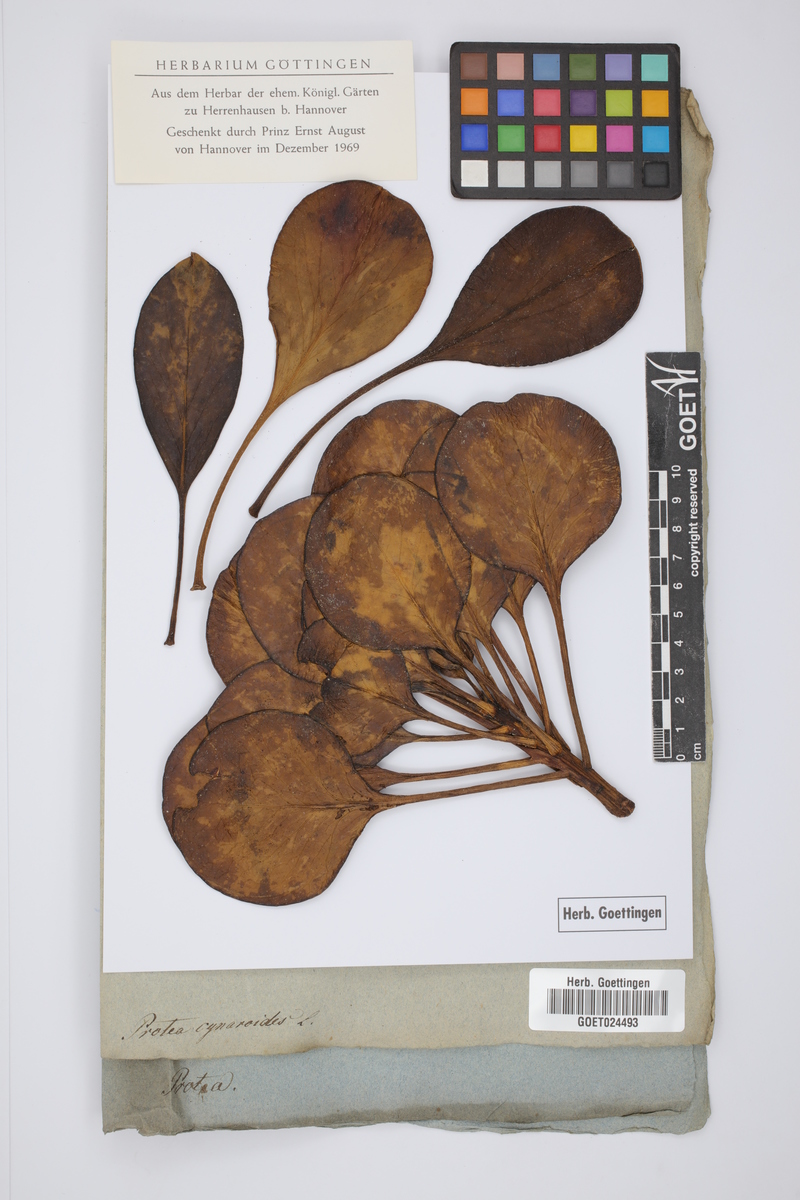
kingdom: Plantae
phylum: Tracheophyta
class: Magnoliopsida
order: Proteales
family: Proteaceae
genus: Protea
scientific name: Protea cynaroides
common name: King protea
